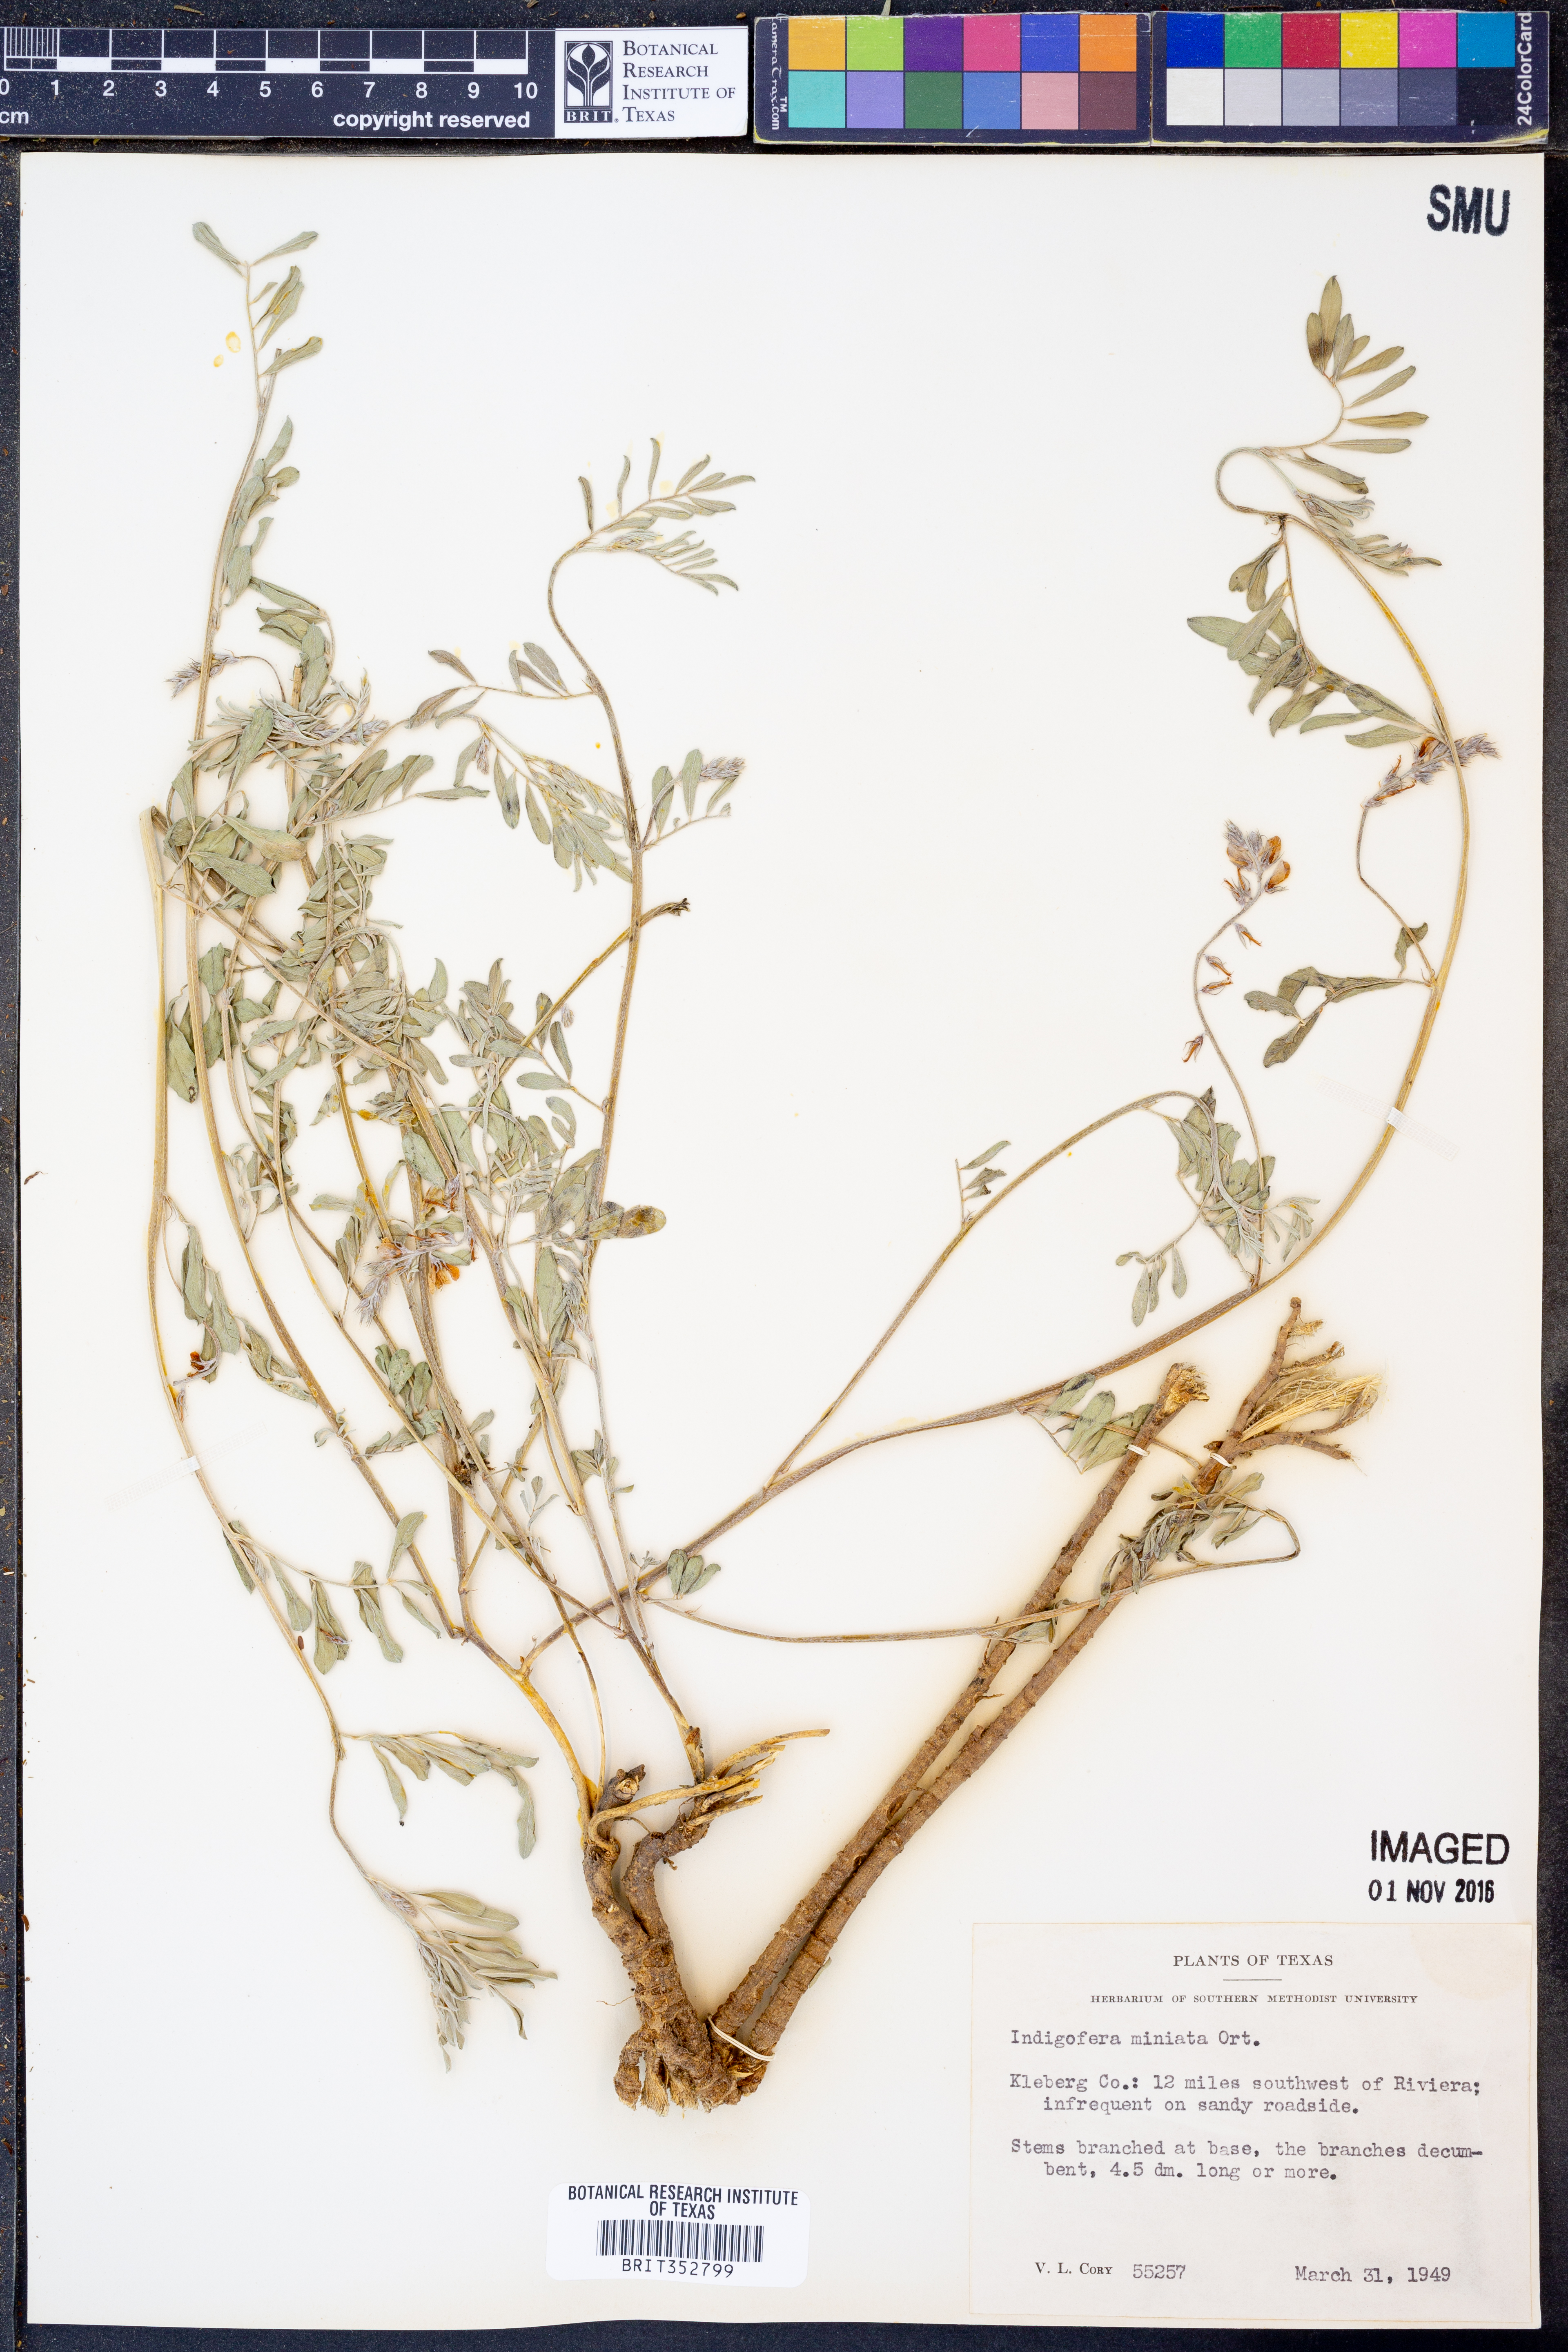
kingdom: Plantae
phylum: Tracheophyta
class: Magnoliopsida
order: Fabales
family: Fabaceae
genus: Indigofera
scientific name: Indigofera miniata
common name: Coast indigo
